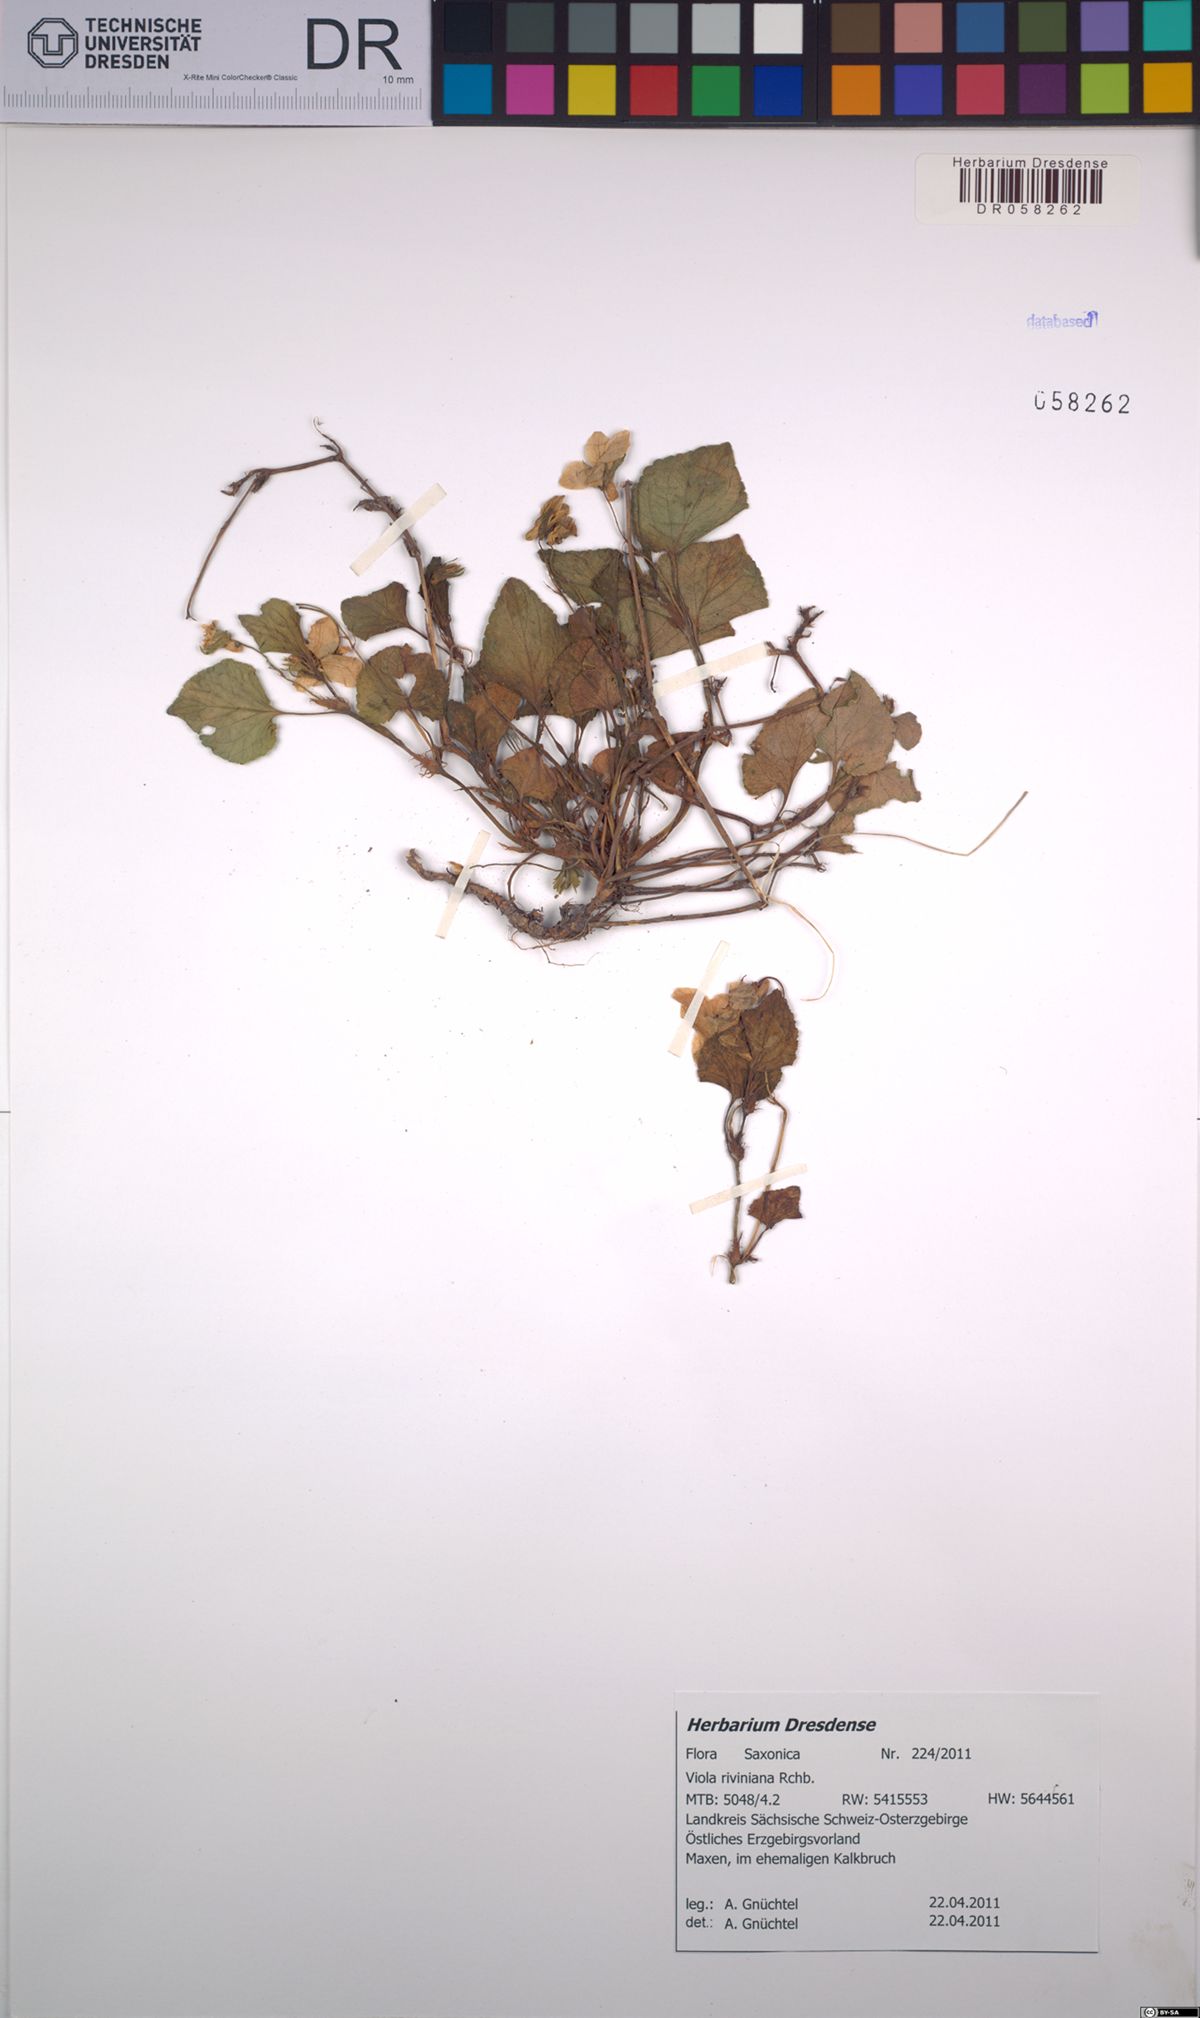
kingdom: Plantae
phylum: Tracheophyta
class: Magnoliopsida
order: Malpighiales
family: Violaceae
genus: Viola
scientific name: Viola riviniana
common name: Common dog-violet
